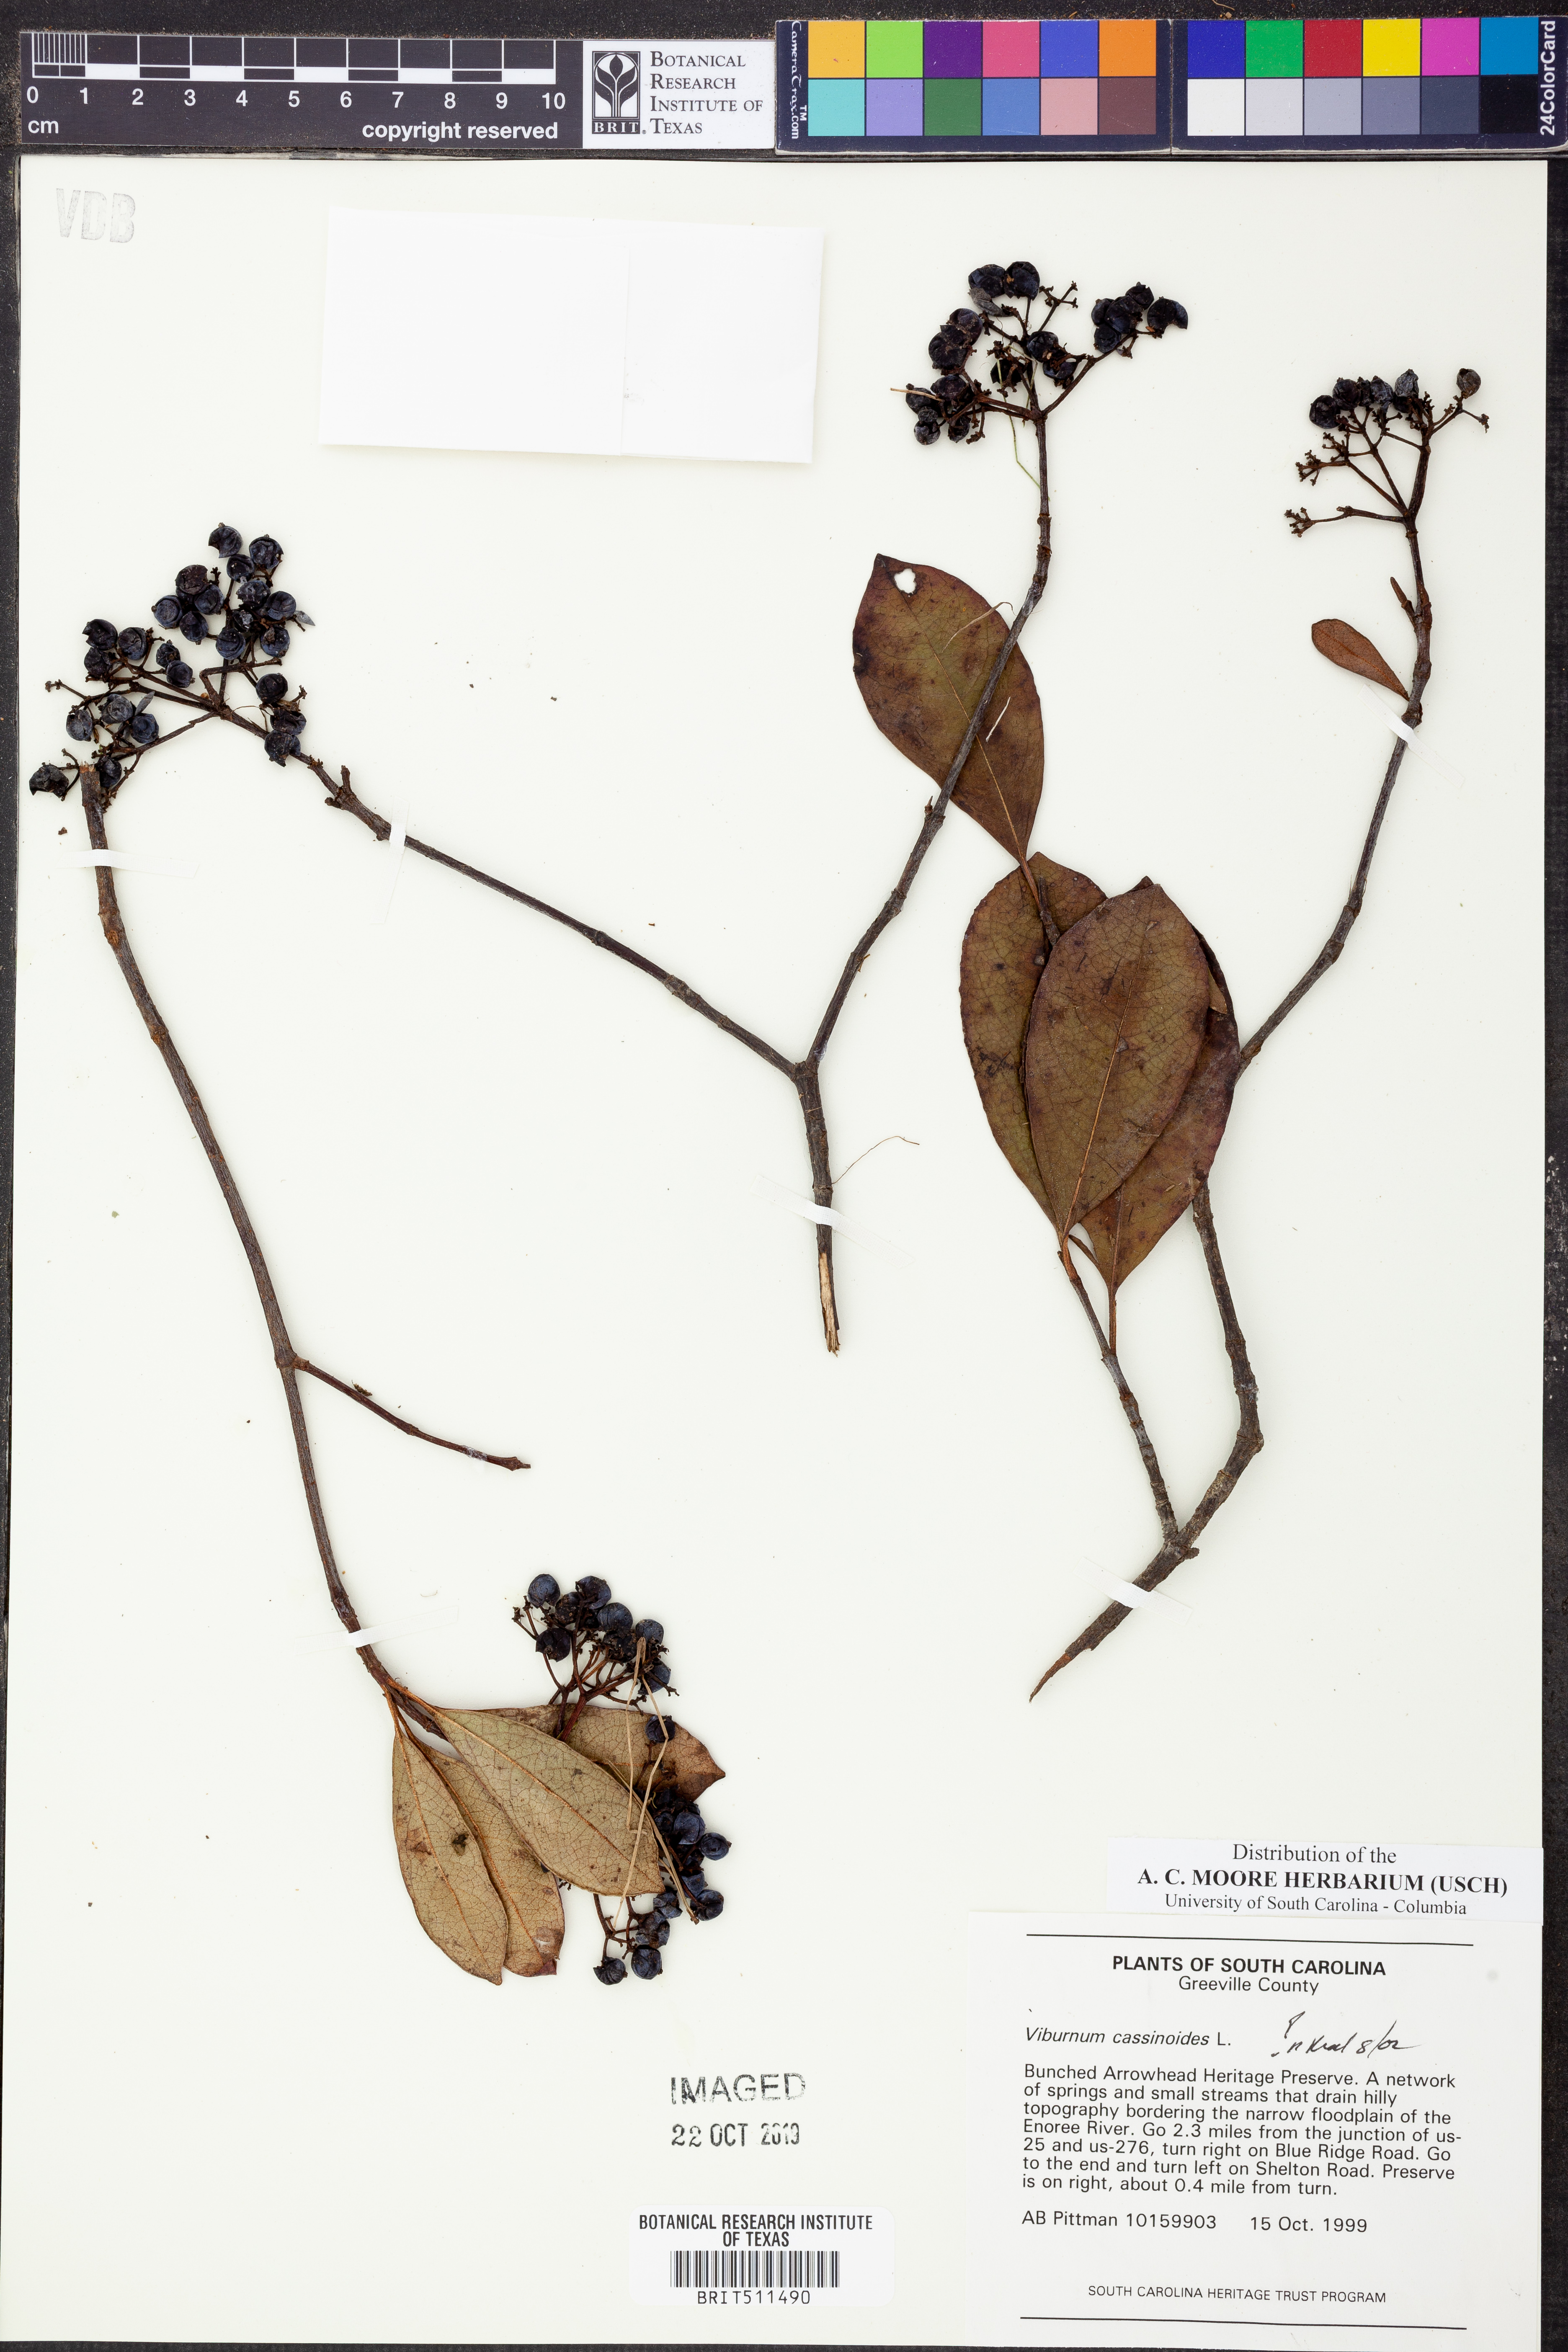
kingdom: Plantae
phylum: Tracheophyta
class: Magnoliopsida
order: Dipsacales
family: Viburnaceae
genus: Viburnum
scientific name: Viburnum cassinoides
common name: Swamp haw
